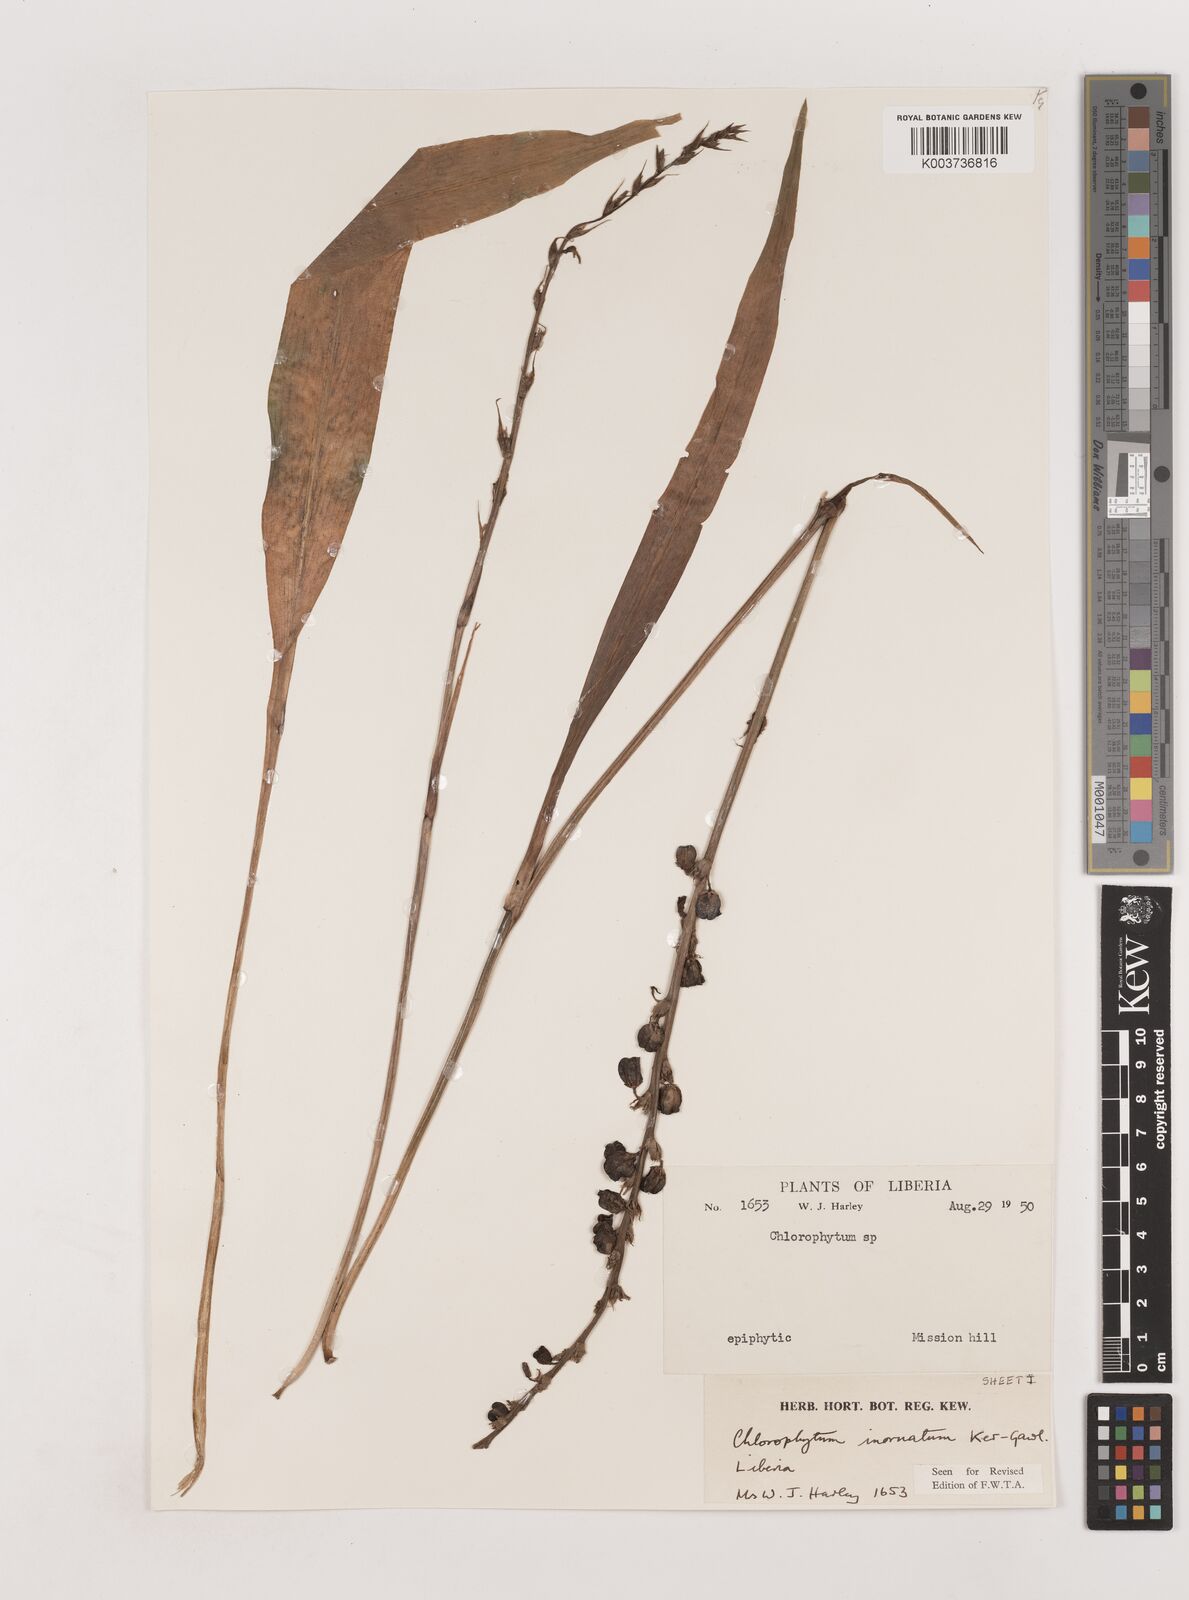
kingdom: Plantae
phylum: Tracheophyta
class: Liliopsida
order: Asparagales
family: Asparagaceae
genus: Chlorophytum
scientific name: Chlorophytum inornatum
